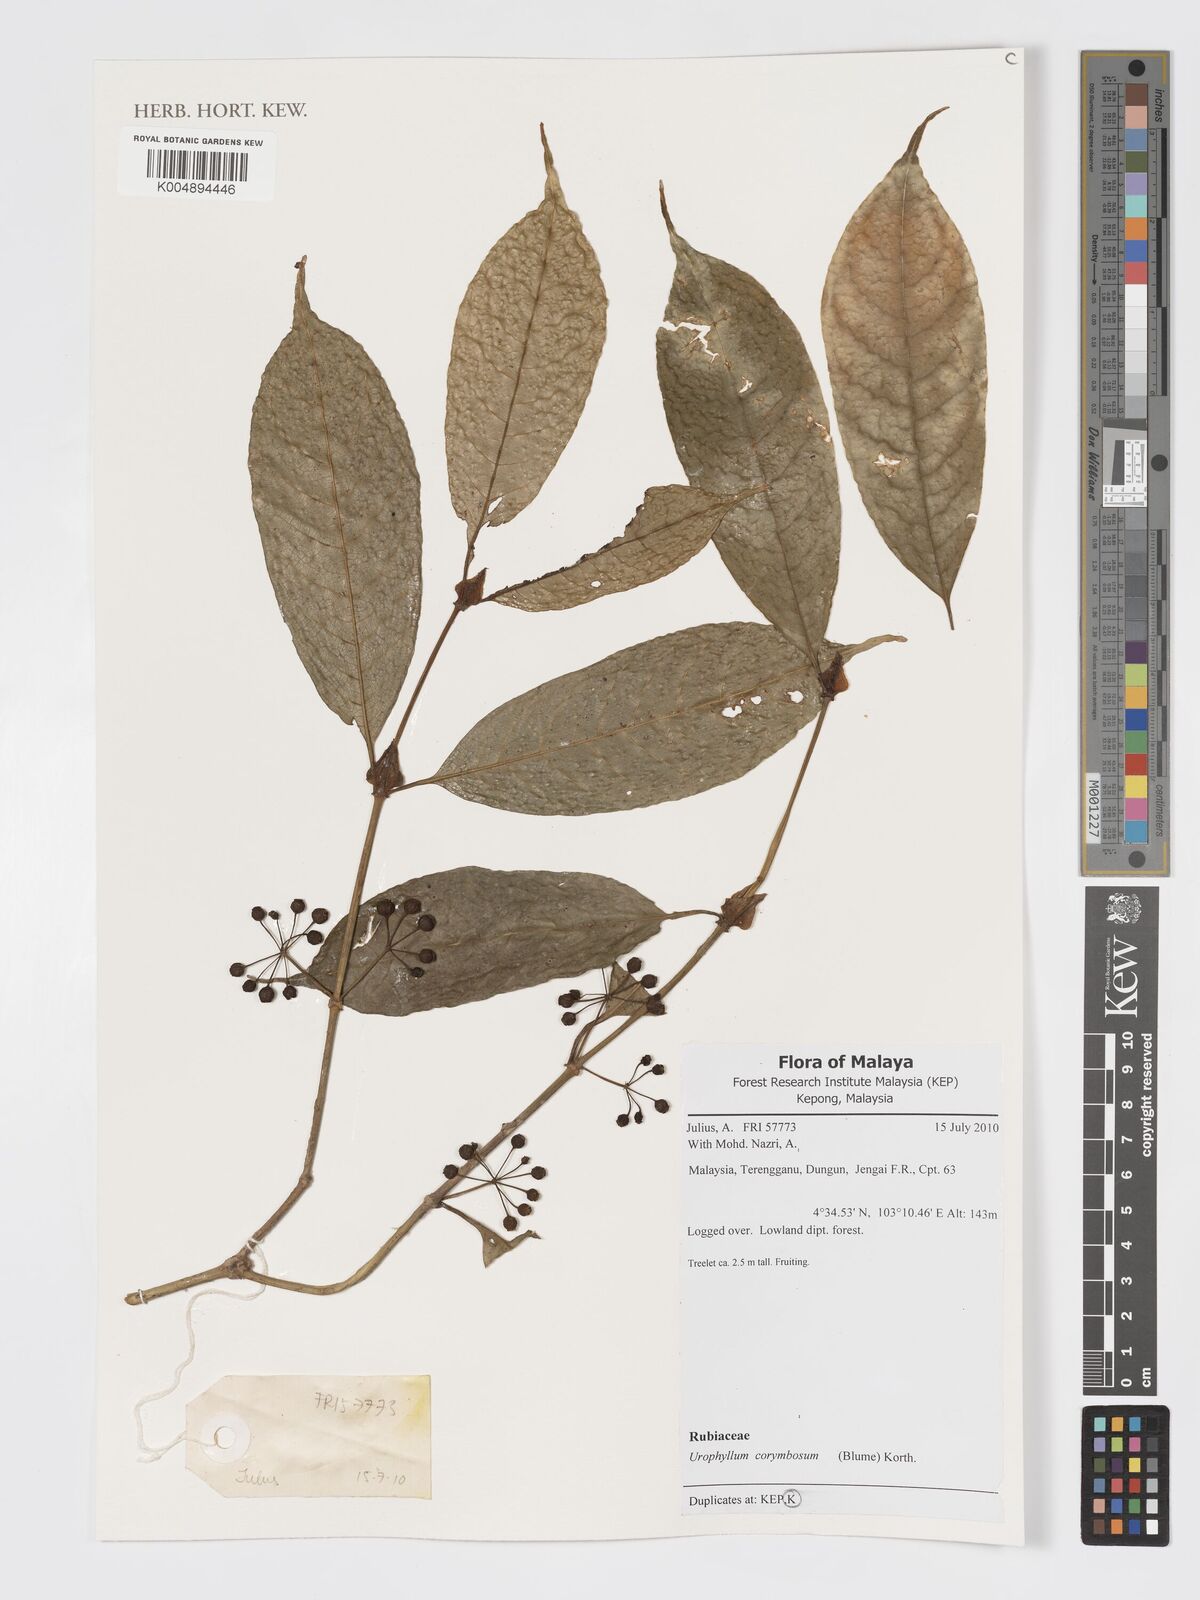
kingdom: Plantae
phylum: Tracheophyta
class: Magnoliopsida
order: Gentianales
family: Rubiaceae
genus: Urophyllum
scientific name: Urophyllum griffithianum
